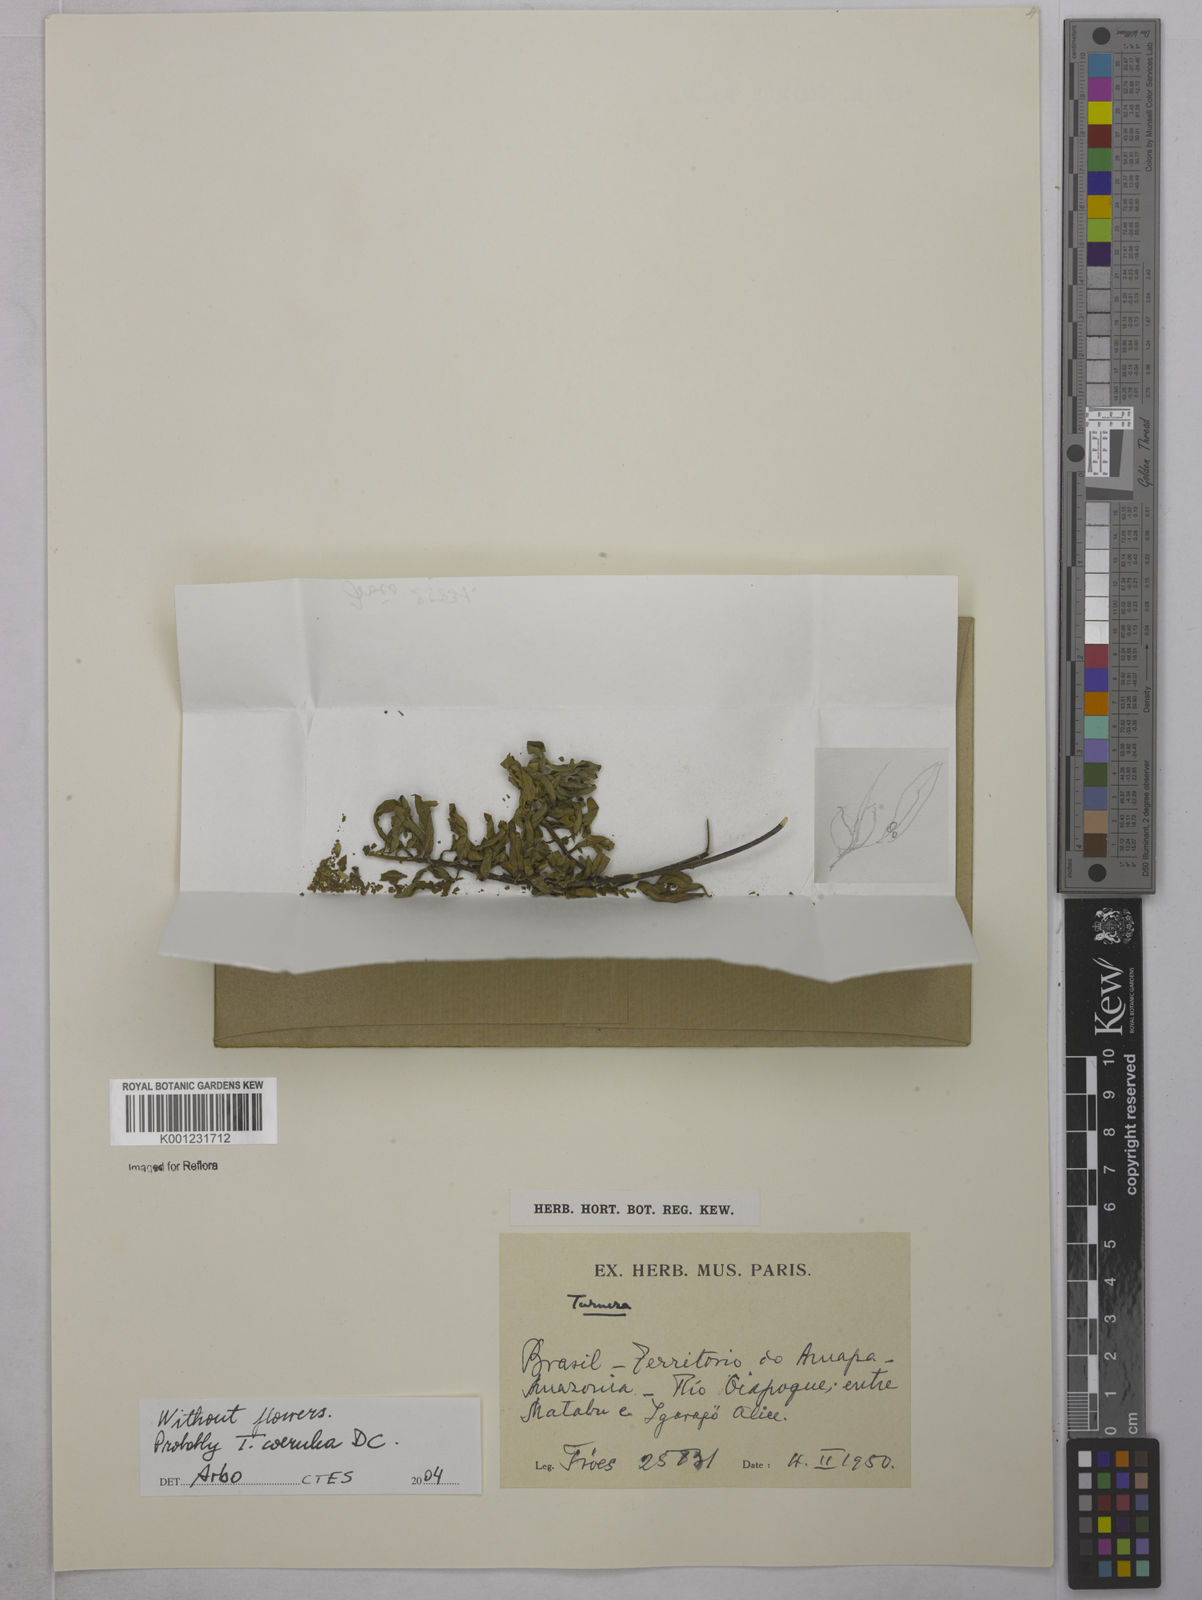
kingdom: Plantae
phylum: Tracheophyta
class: Magnoliopsida
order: Malpighiales
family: Turneraceae
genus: Turnera
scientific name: Turnera
